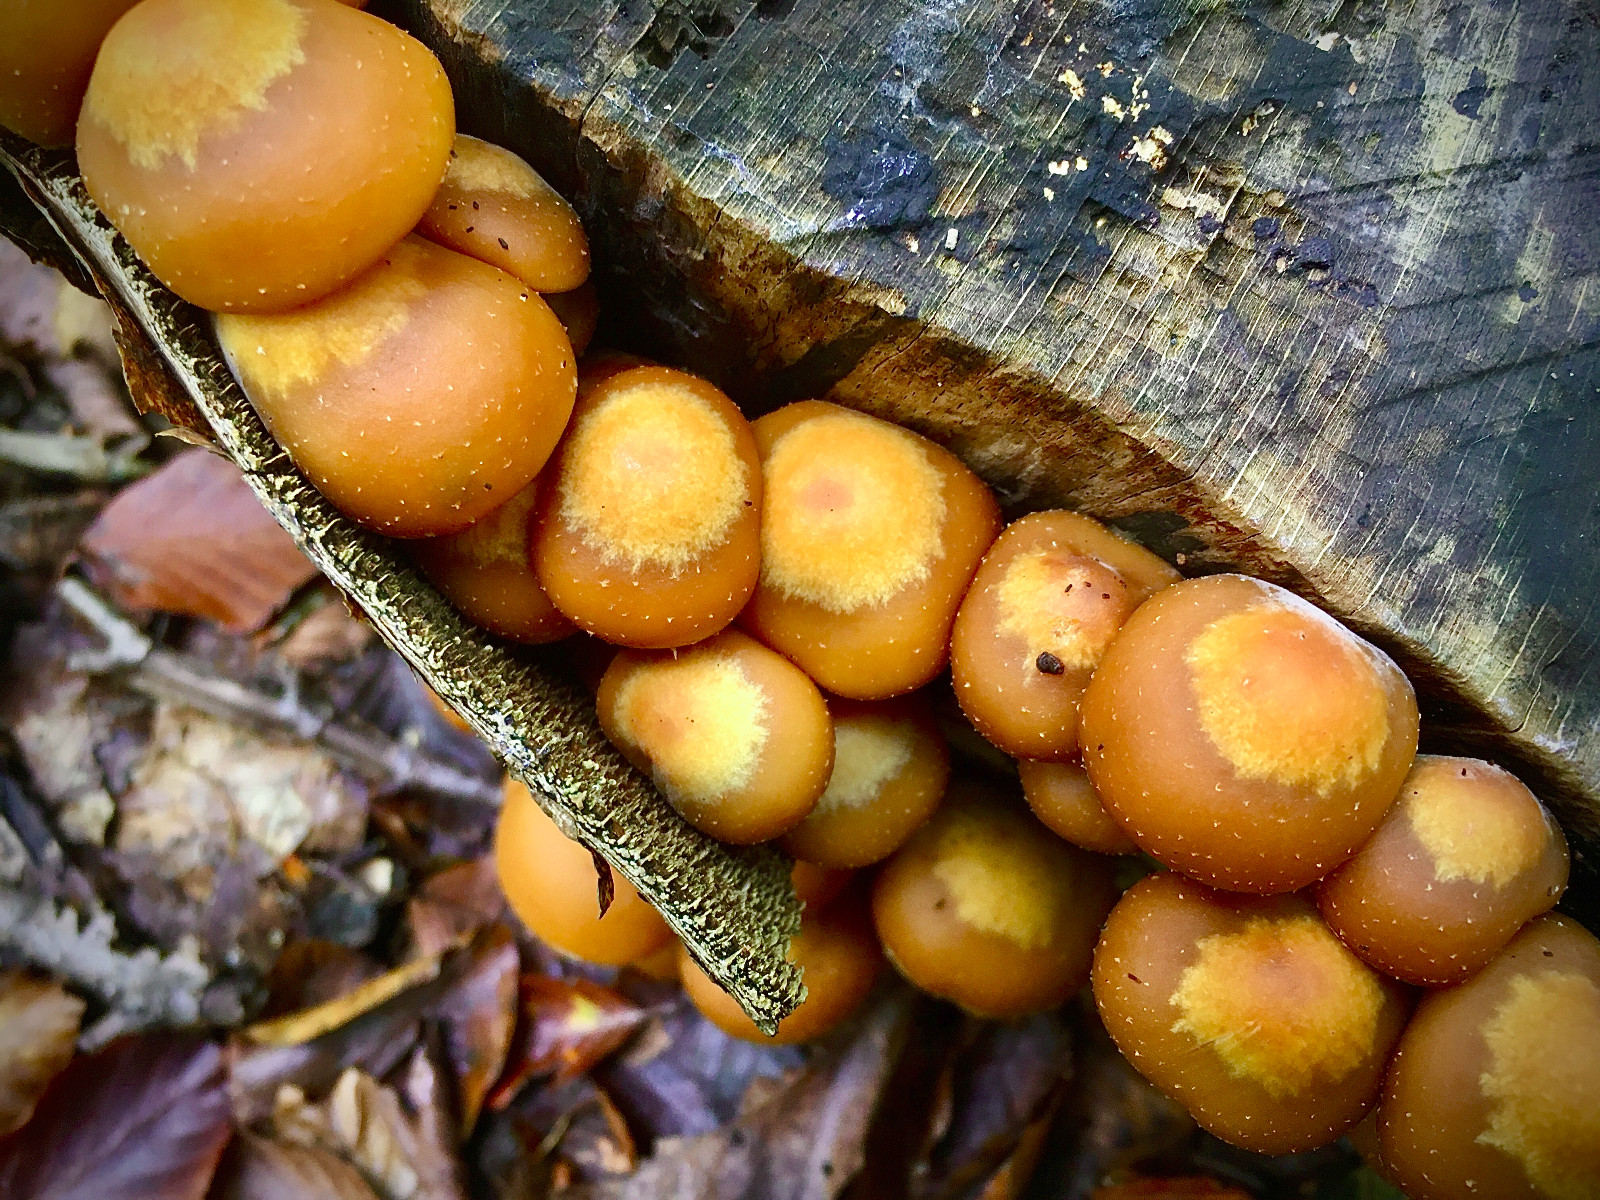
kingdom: Fungi
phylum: Basidiomycota
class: Agaricomycetes
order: Agaricales
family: Strophariaceae
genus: Kuehneromyces
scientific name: Kuehneromyces mutabilis
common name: foranderlig skælhat
